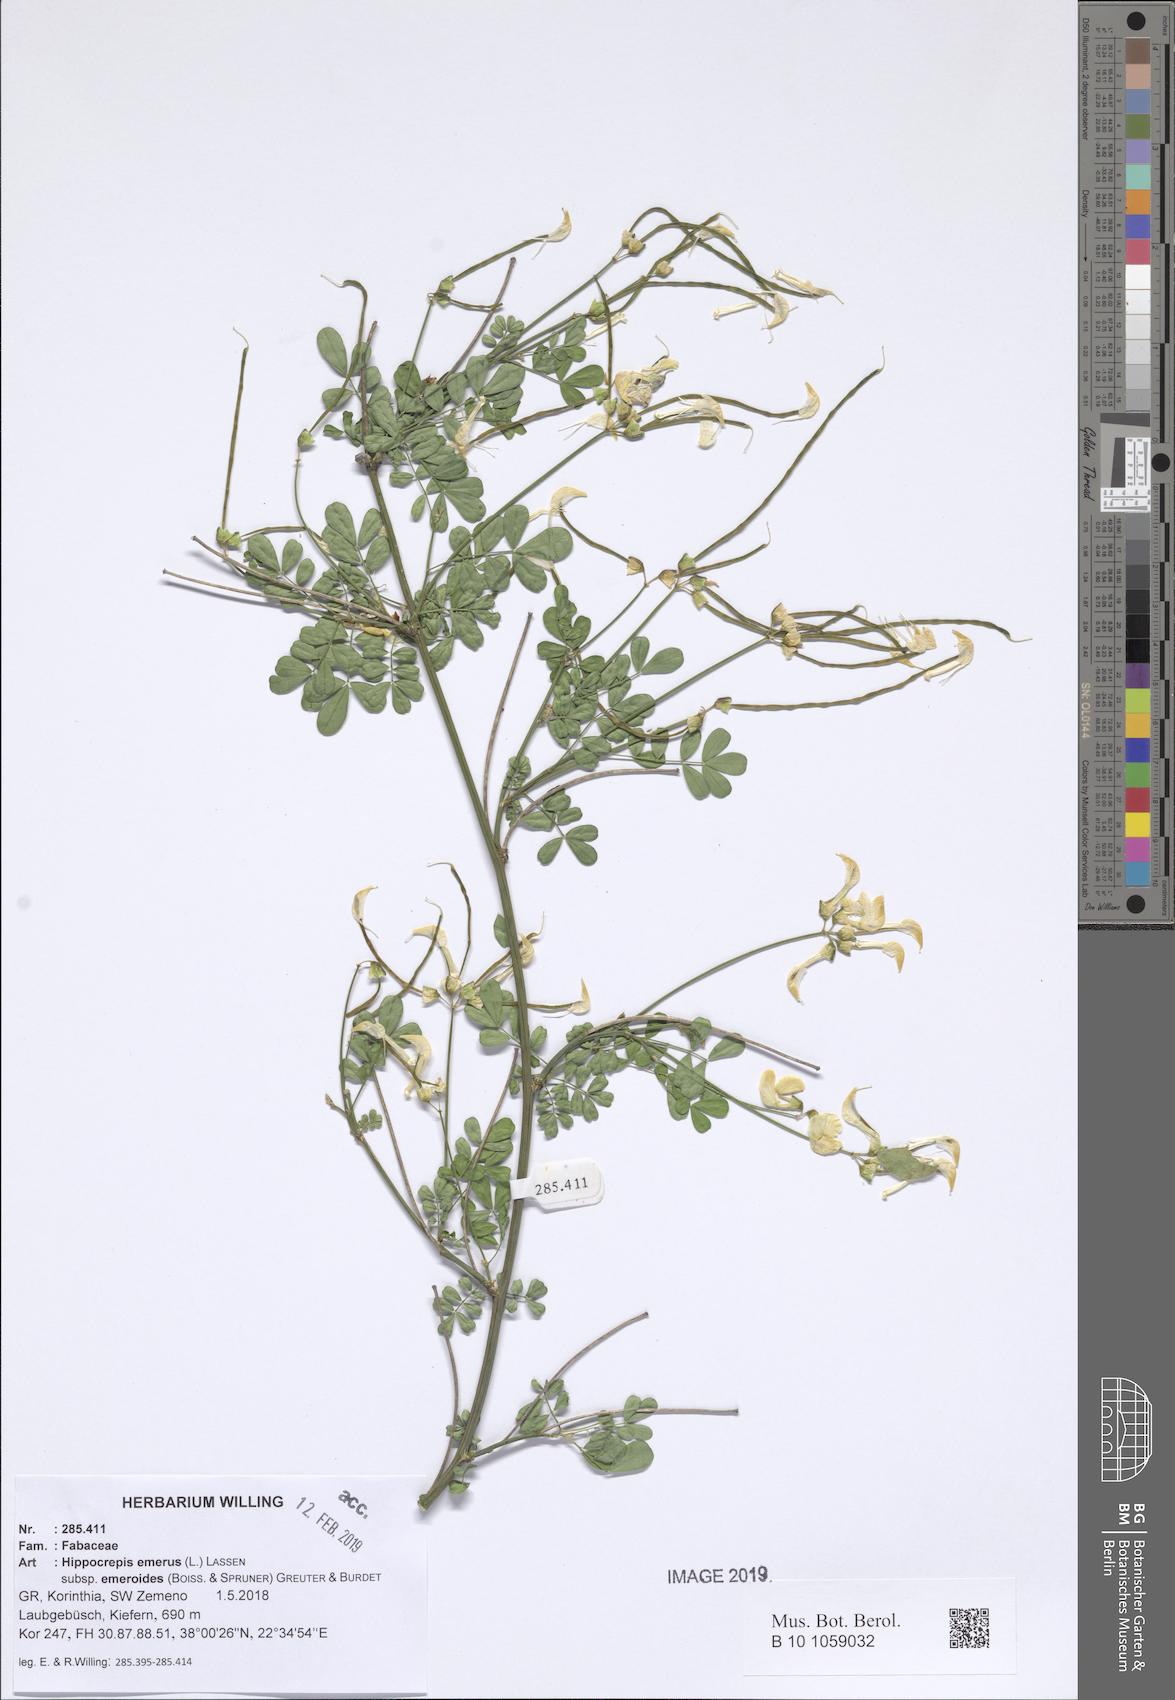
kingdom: Plantae
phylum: Tracheophyta
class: Magnoliopsida
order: Fabales
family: Fabaceae
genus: Hippocrepis
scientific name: Hippocrepis emerus
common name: Scorpion senna
